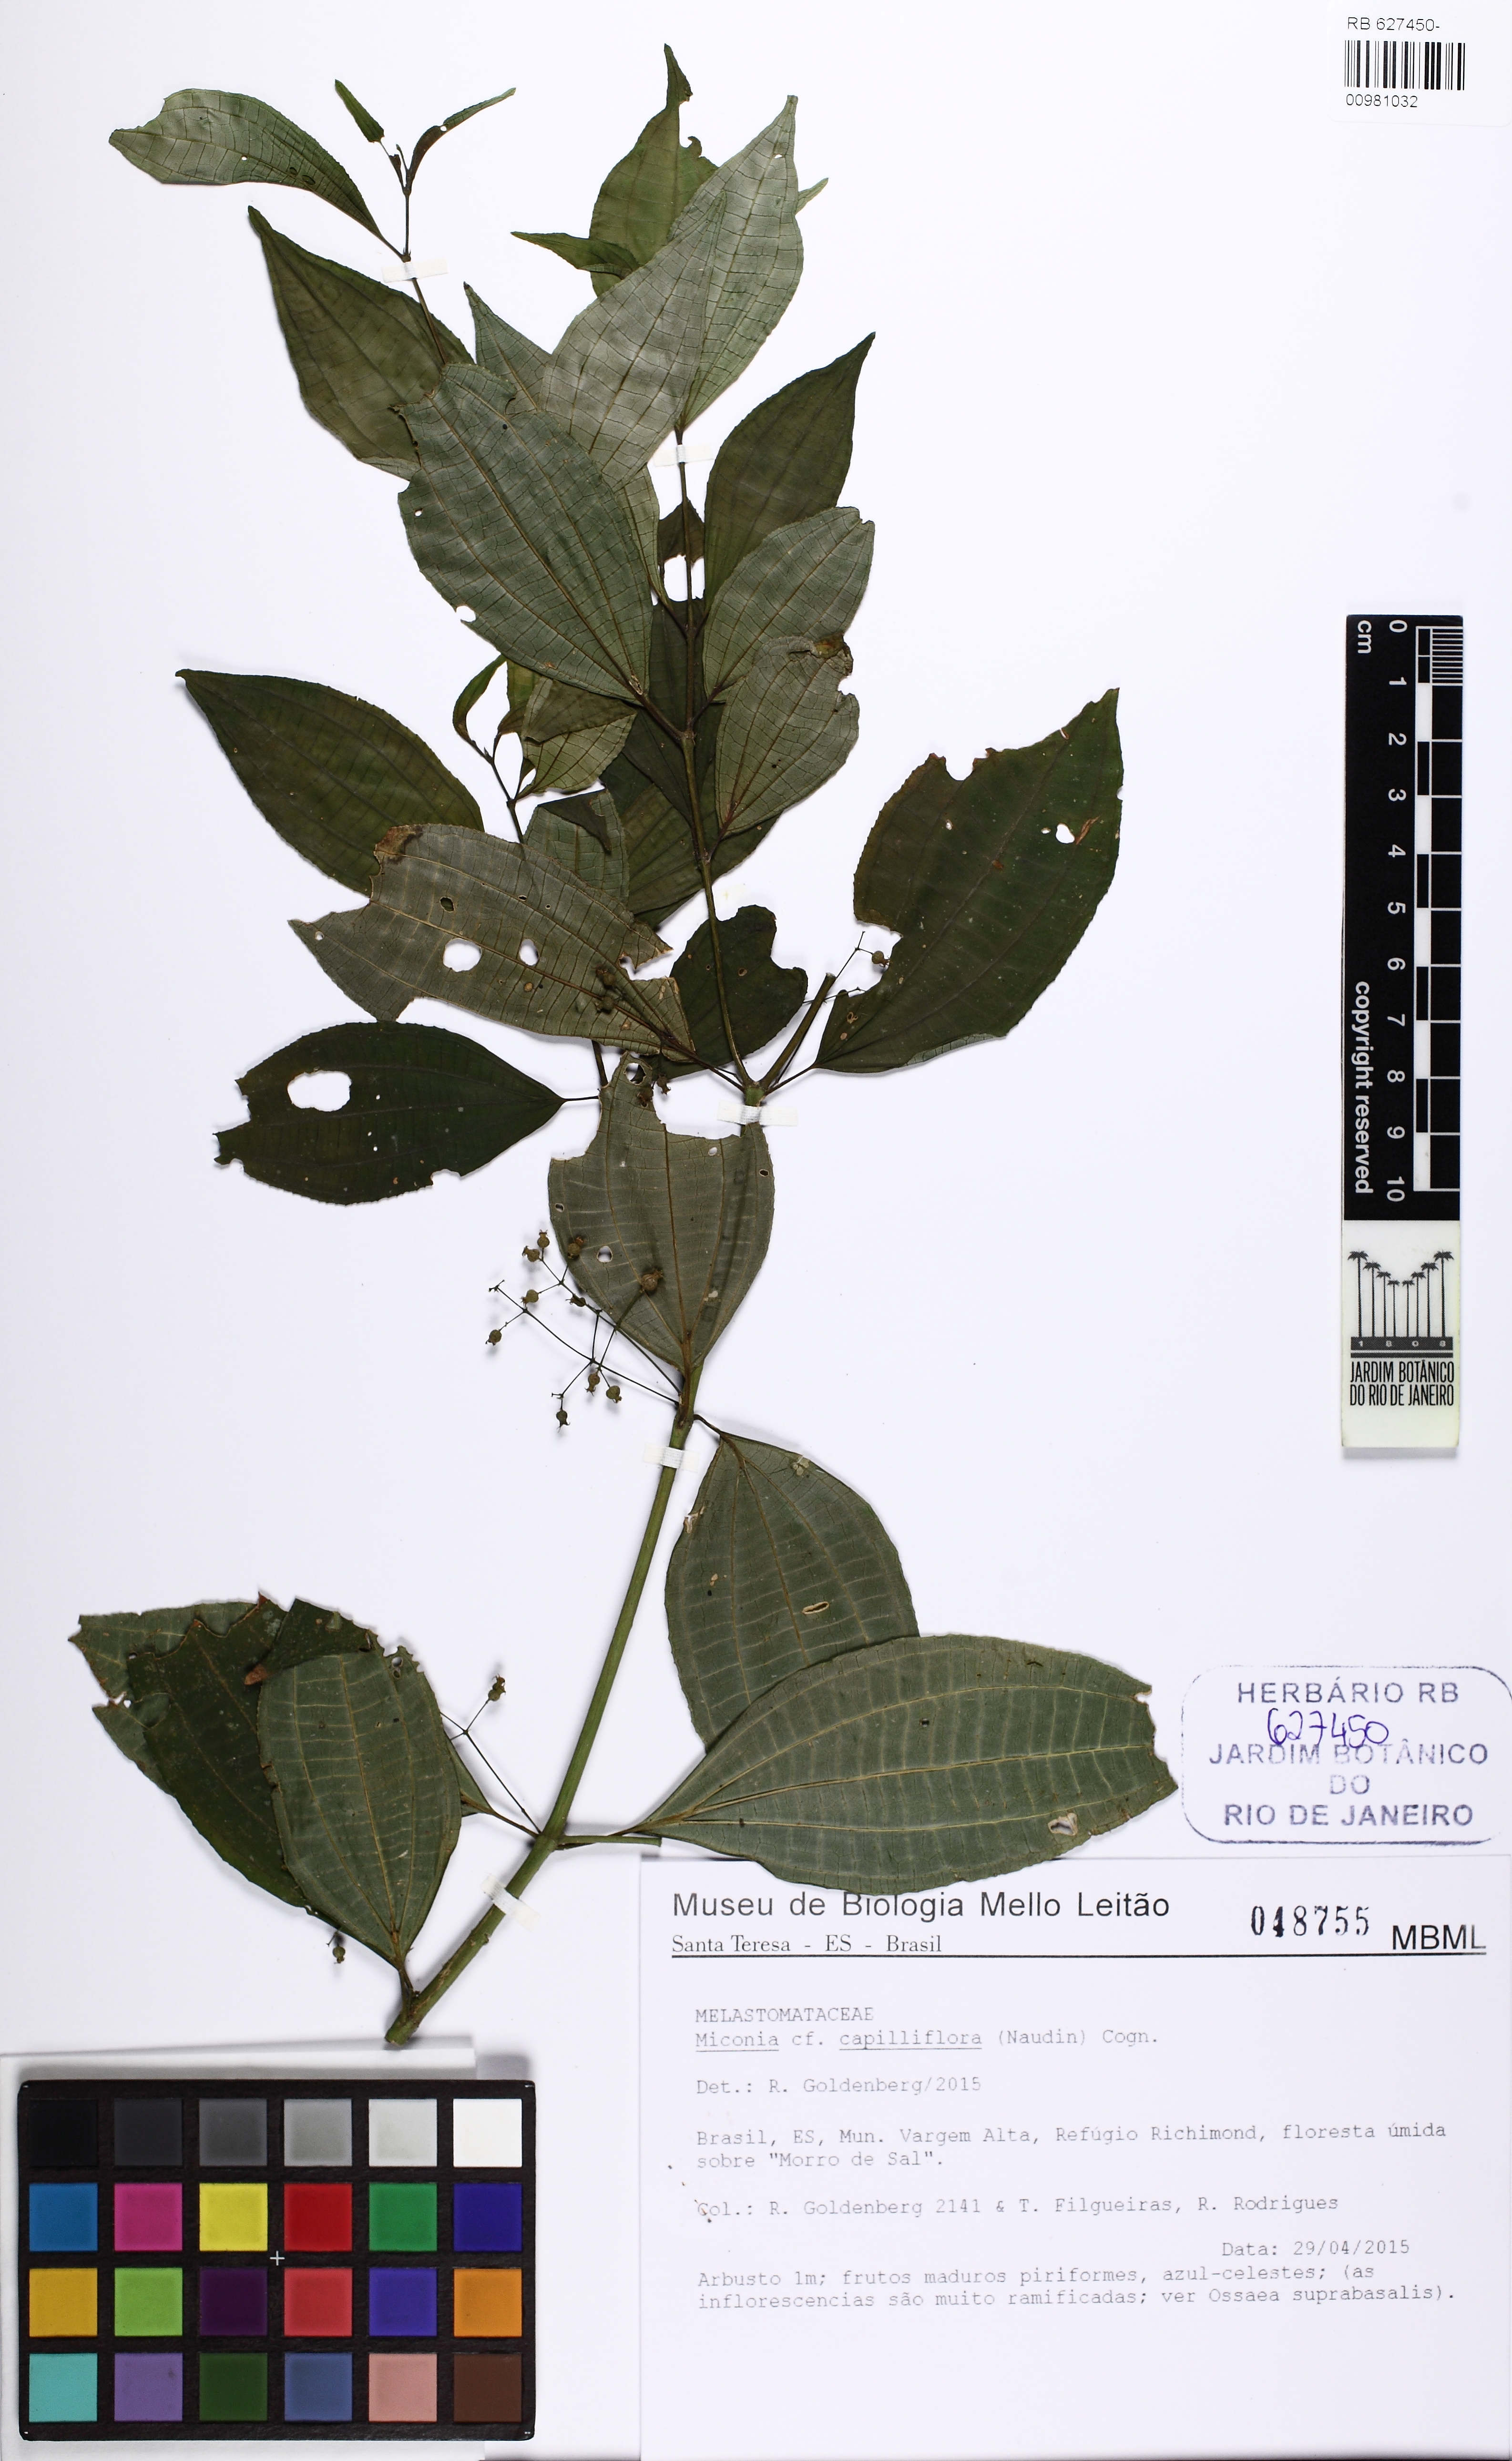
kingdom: Plantae
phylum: Tracheophyta
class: Magnoliopsida
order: Myrtales
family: Melastomataceae
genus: Miconia
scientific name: Miconia
